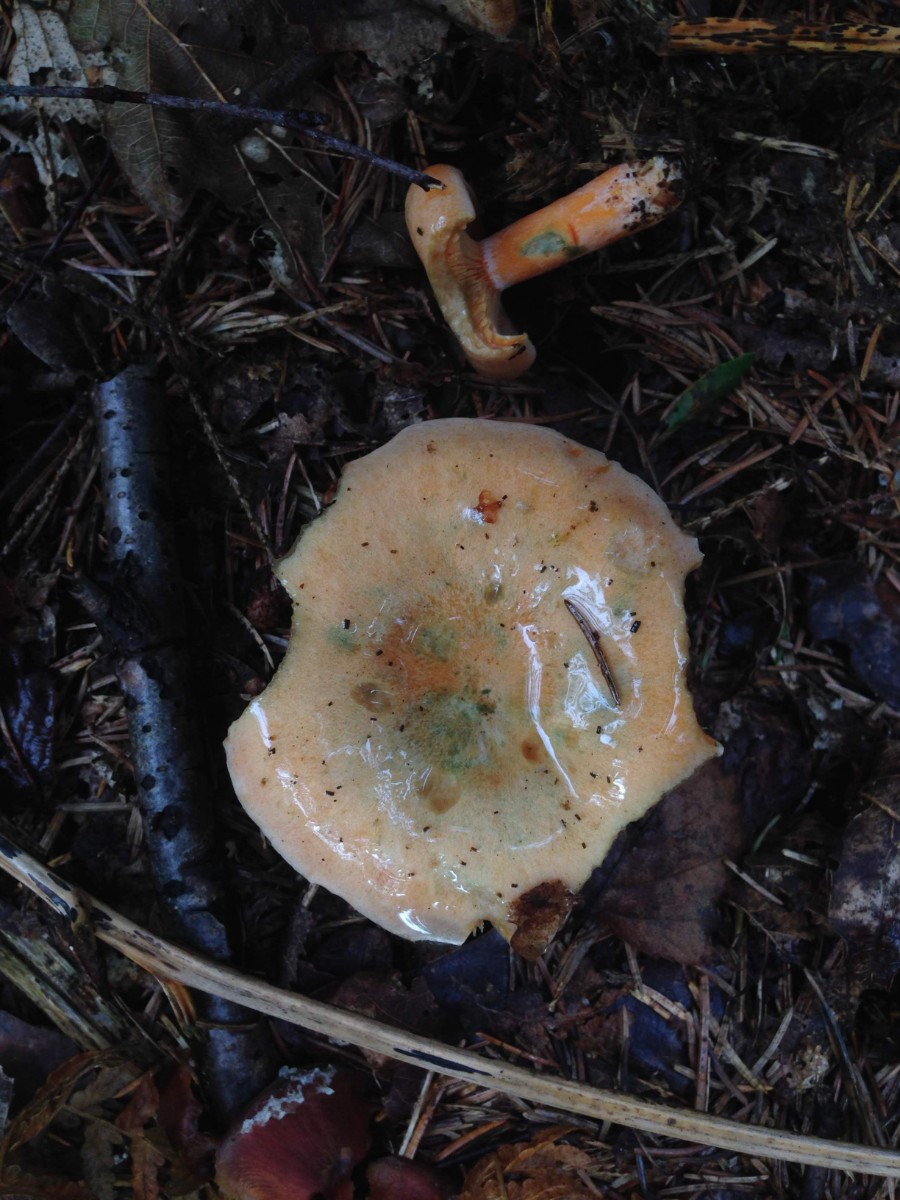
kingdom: Fungi
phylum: Basidiomycota
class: Agaricomycetes
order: Russulales
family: Russulaceae
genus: Lactarius
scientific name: Lactarius deterrimus
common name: gran-mælkehat
